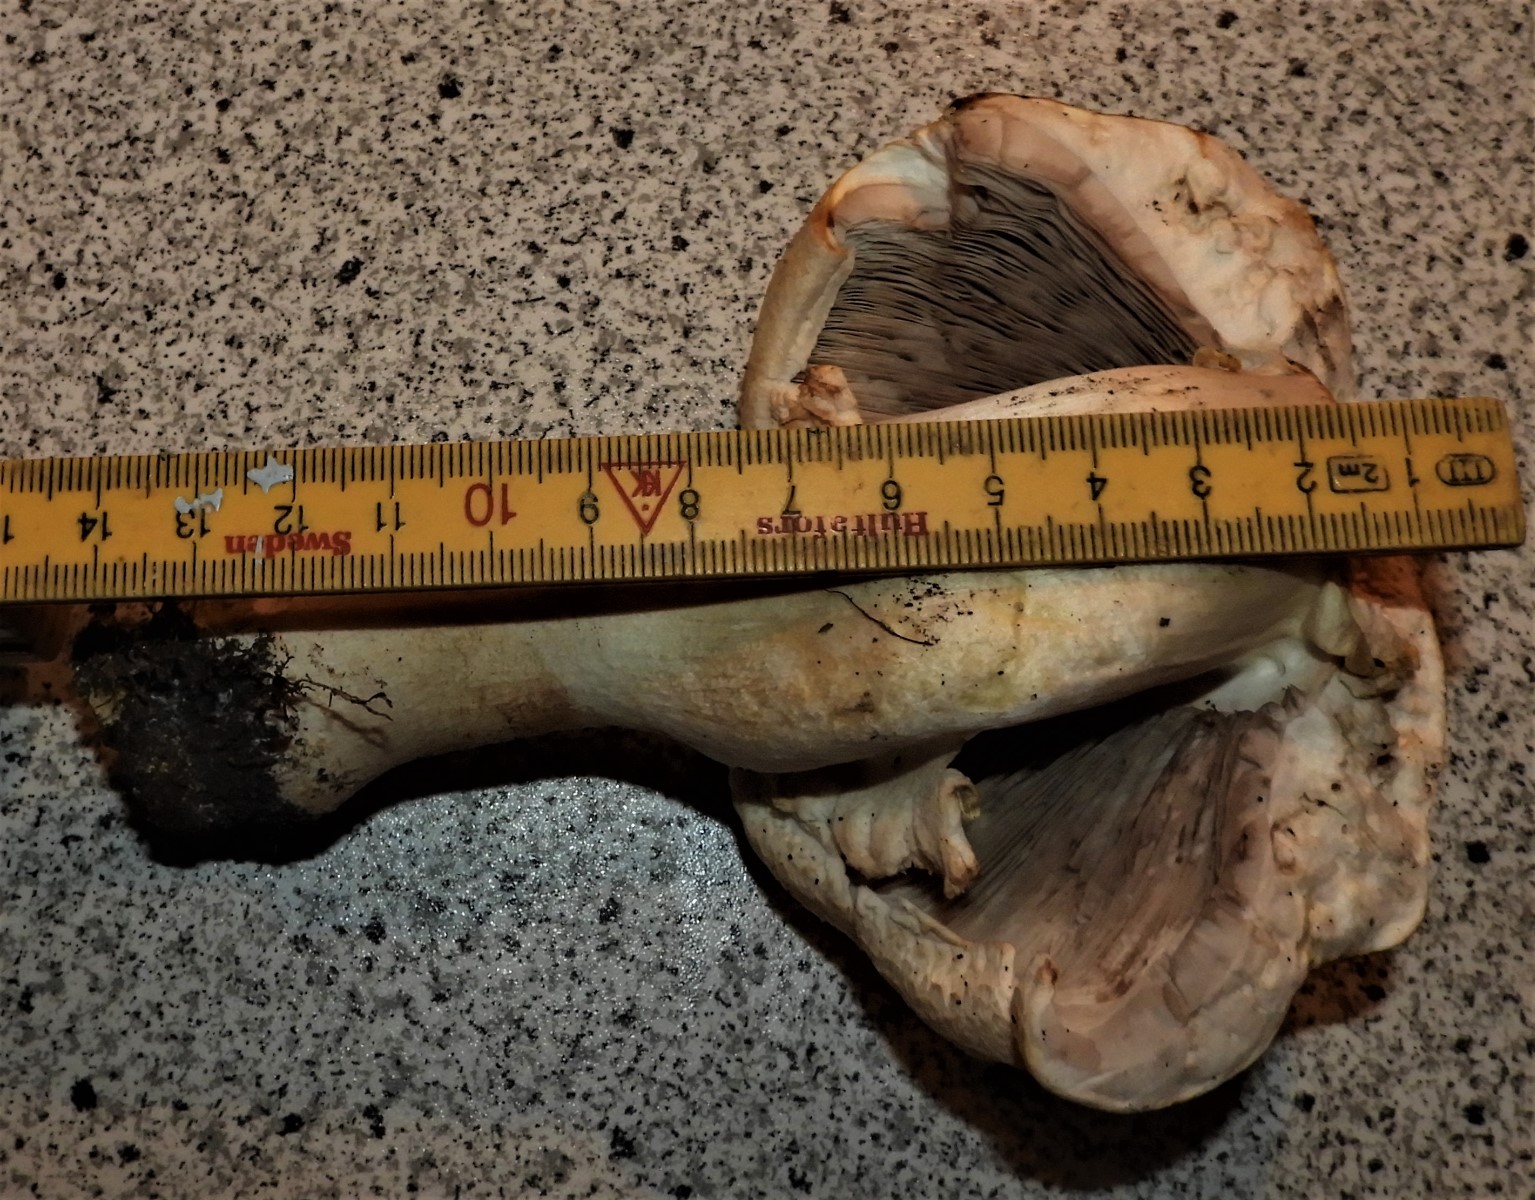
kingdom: Fungi
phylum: Basidiomycota
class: Agaricomycetes
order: Agaricales
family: Agaricaceae
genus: Agaricus
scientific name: Agaricus arvensis
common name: ager-champignon
